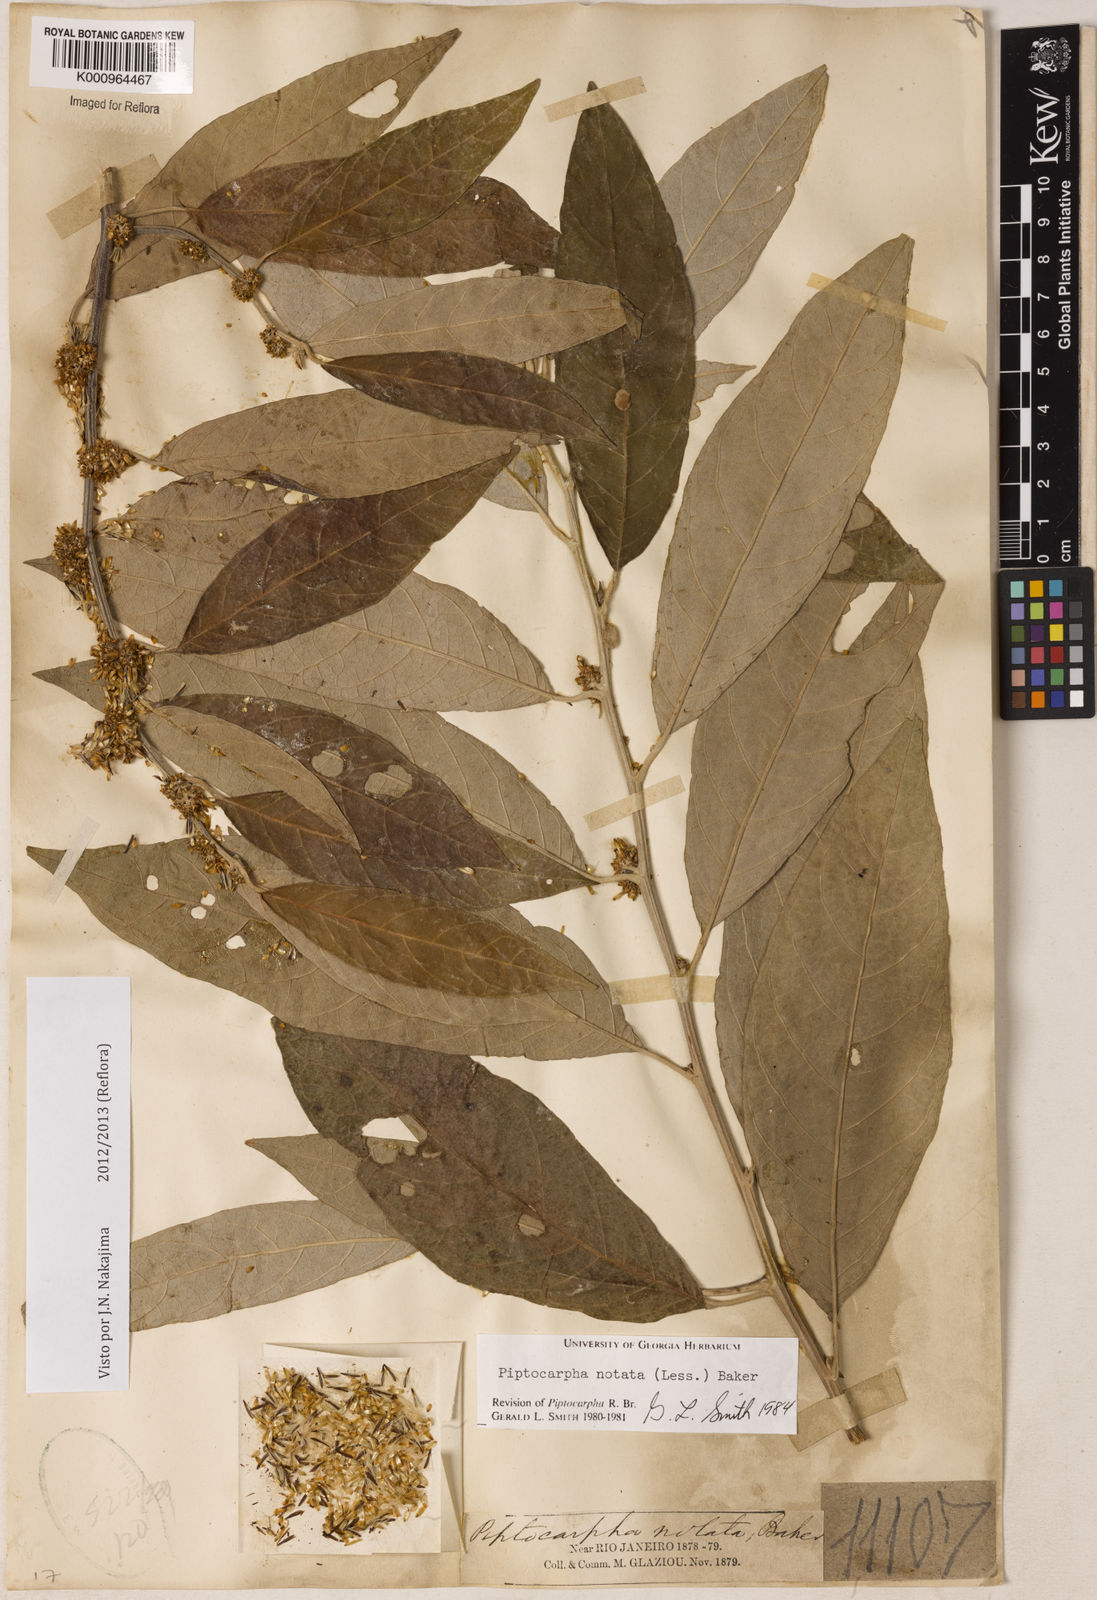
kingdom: Plantae
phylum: Tracheophyta
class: Magnoliopsida
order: Asterales
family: Asteraceae
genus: Piptocarpha
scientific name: Piptocarpha notata
